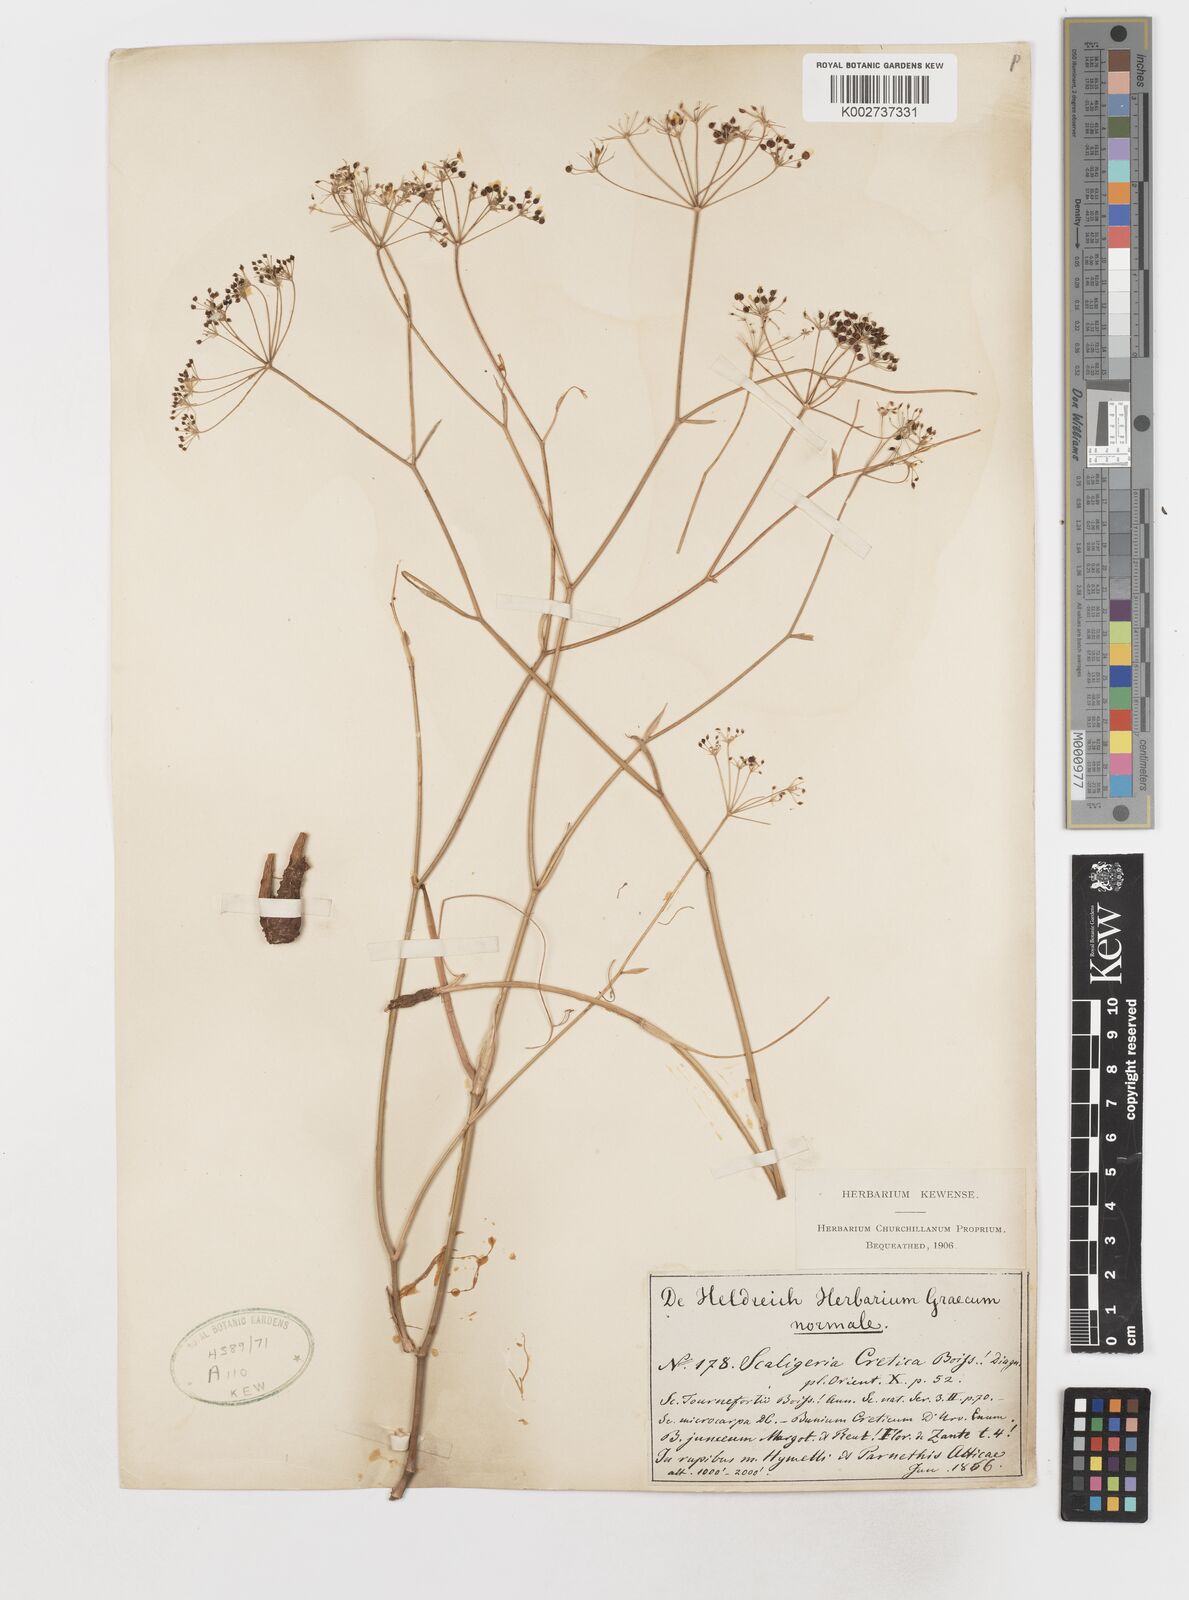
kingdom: Plantae
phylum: Tracheophyta
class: Magnoliopsida
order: Apiales
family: Apiaceae
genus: Scaligeria
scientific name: Scaligeria napiformis
